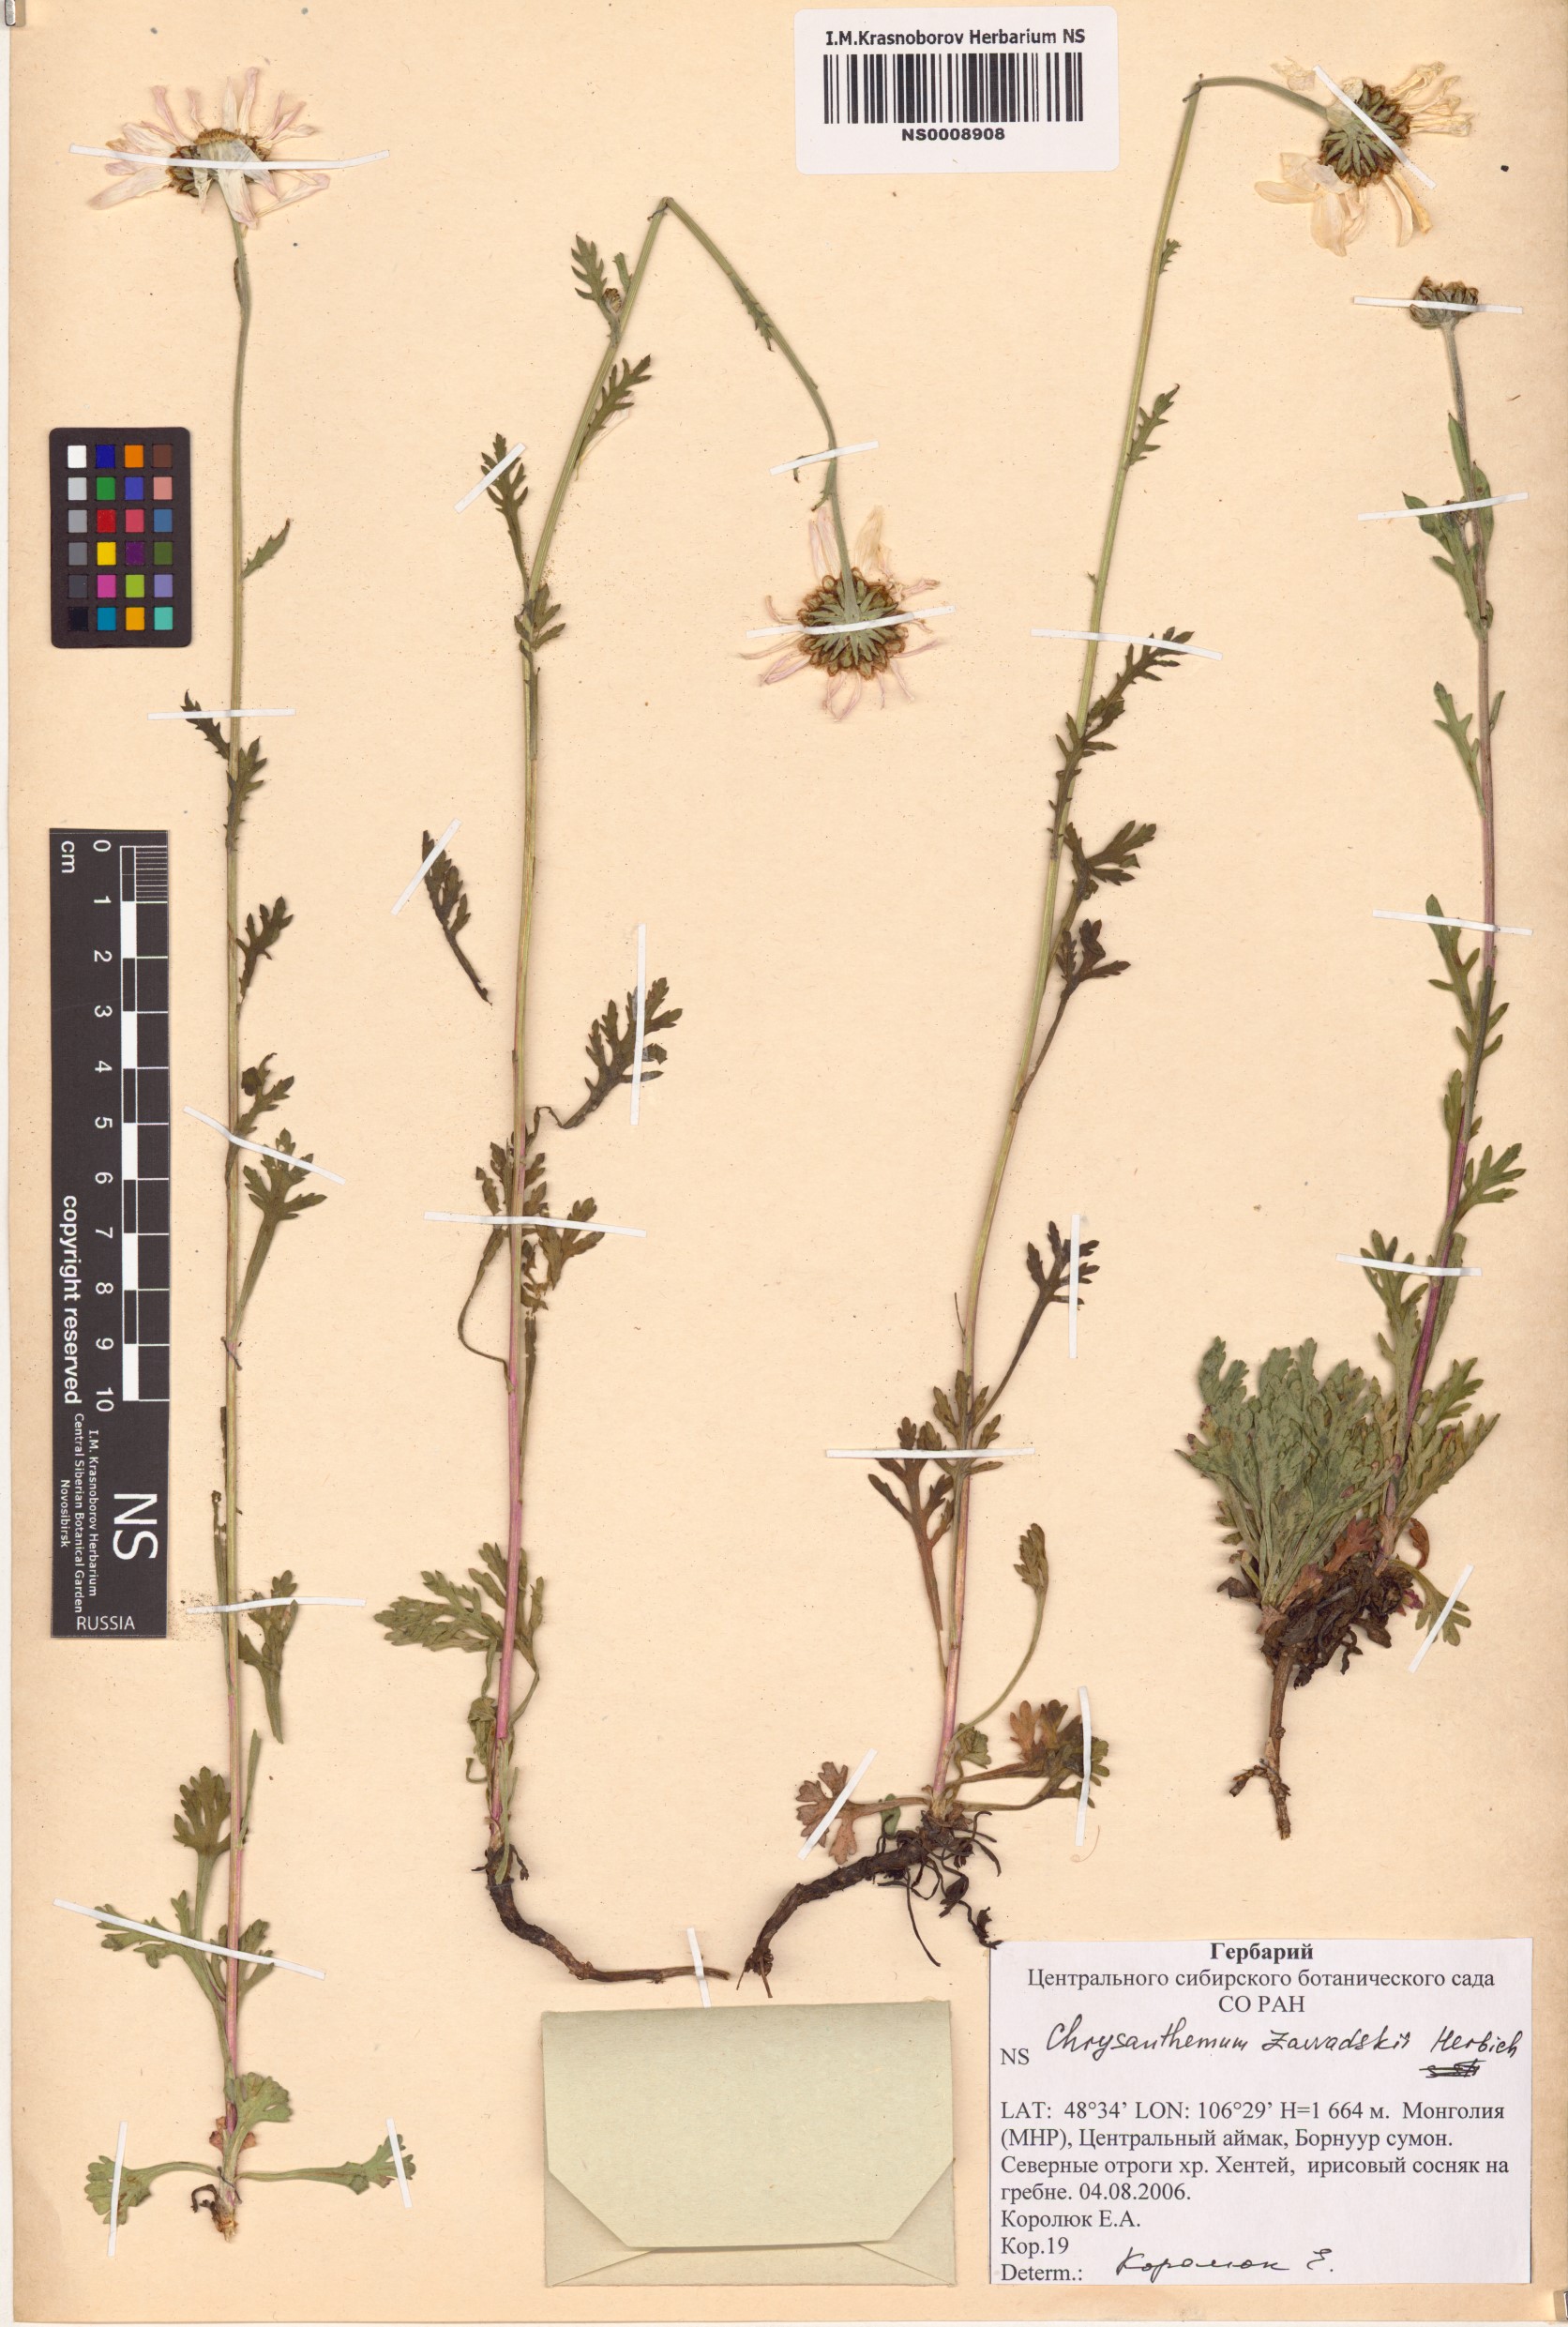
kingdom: Plantae
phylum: Tracheophyta
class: Magnoliopsida
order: Asterales
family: Asteraceae
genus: Chrysanthemum
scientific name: Chrysanthemum zawadzkii
